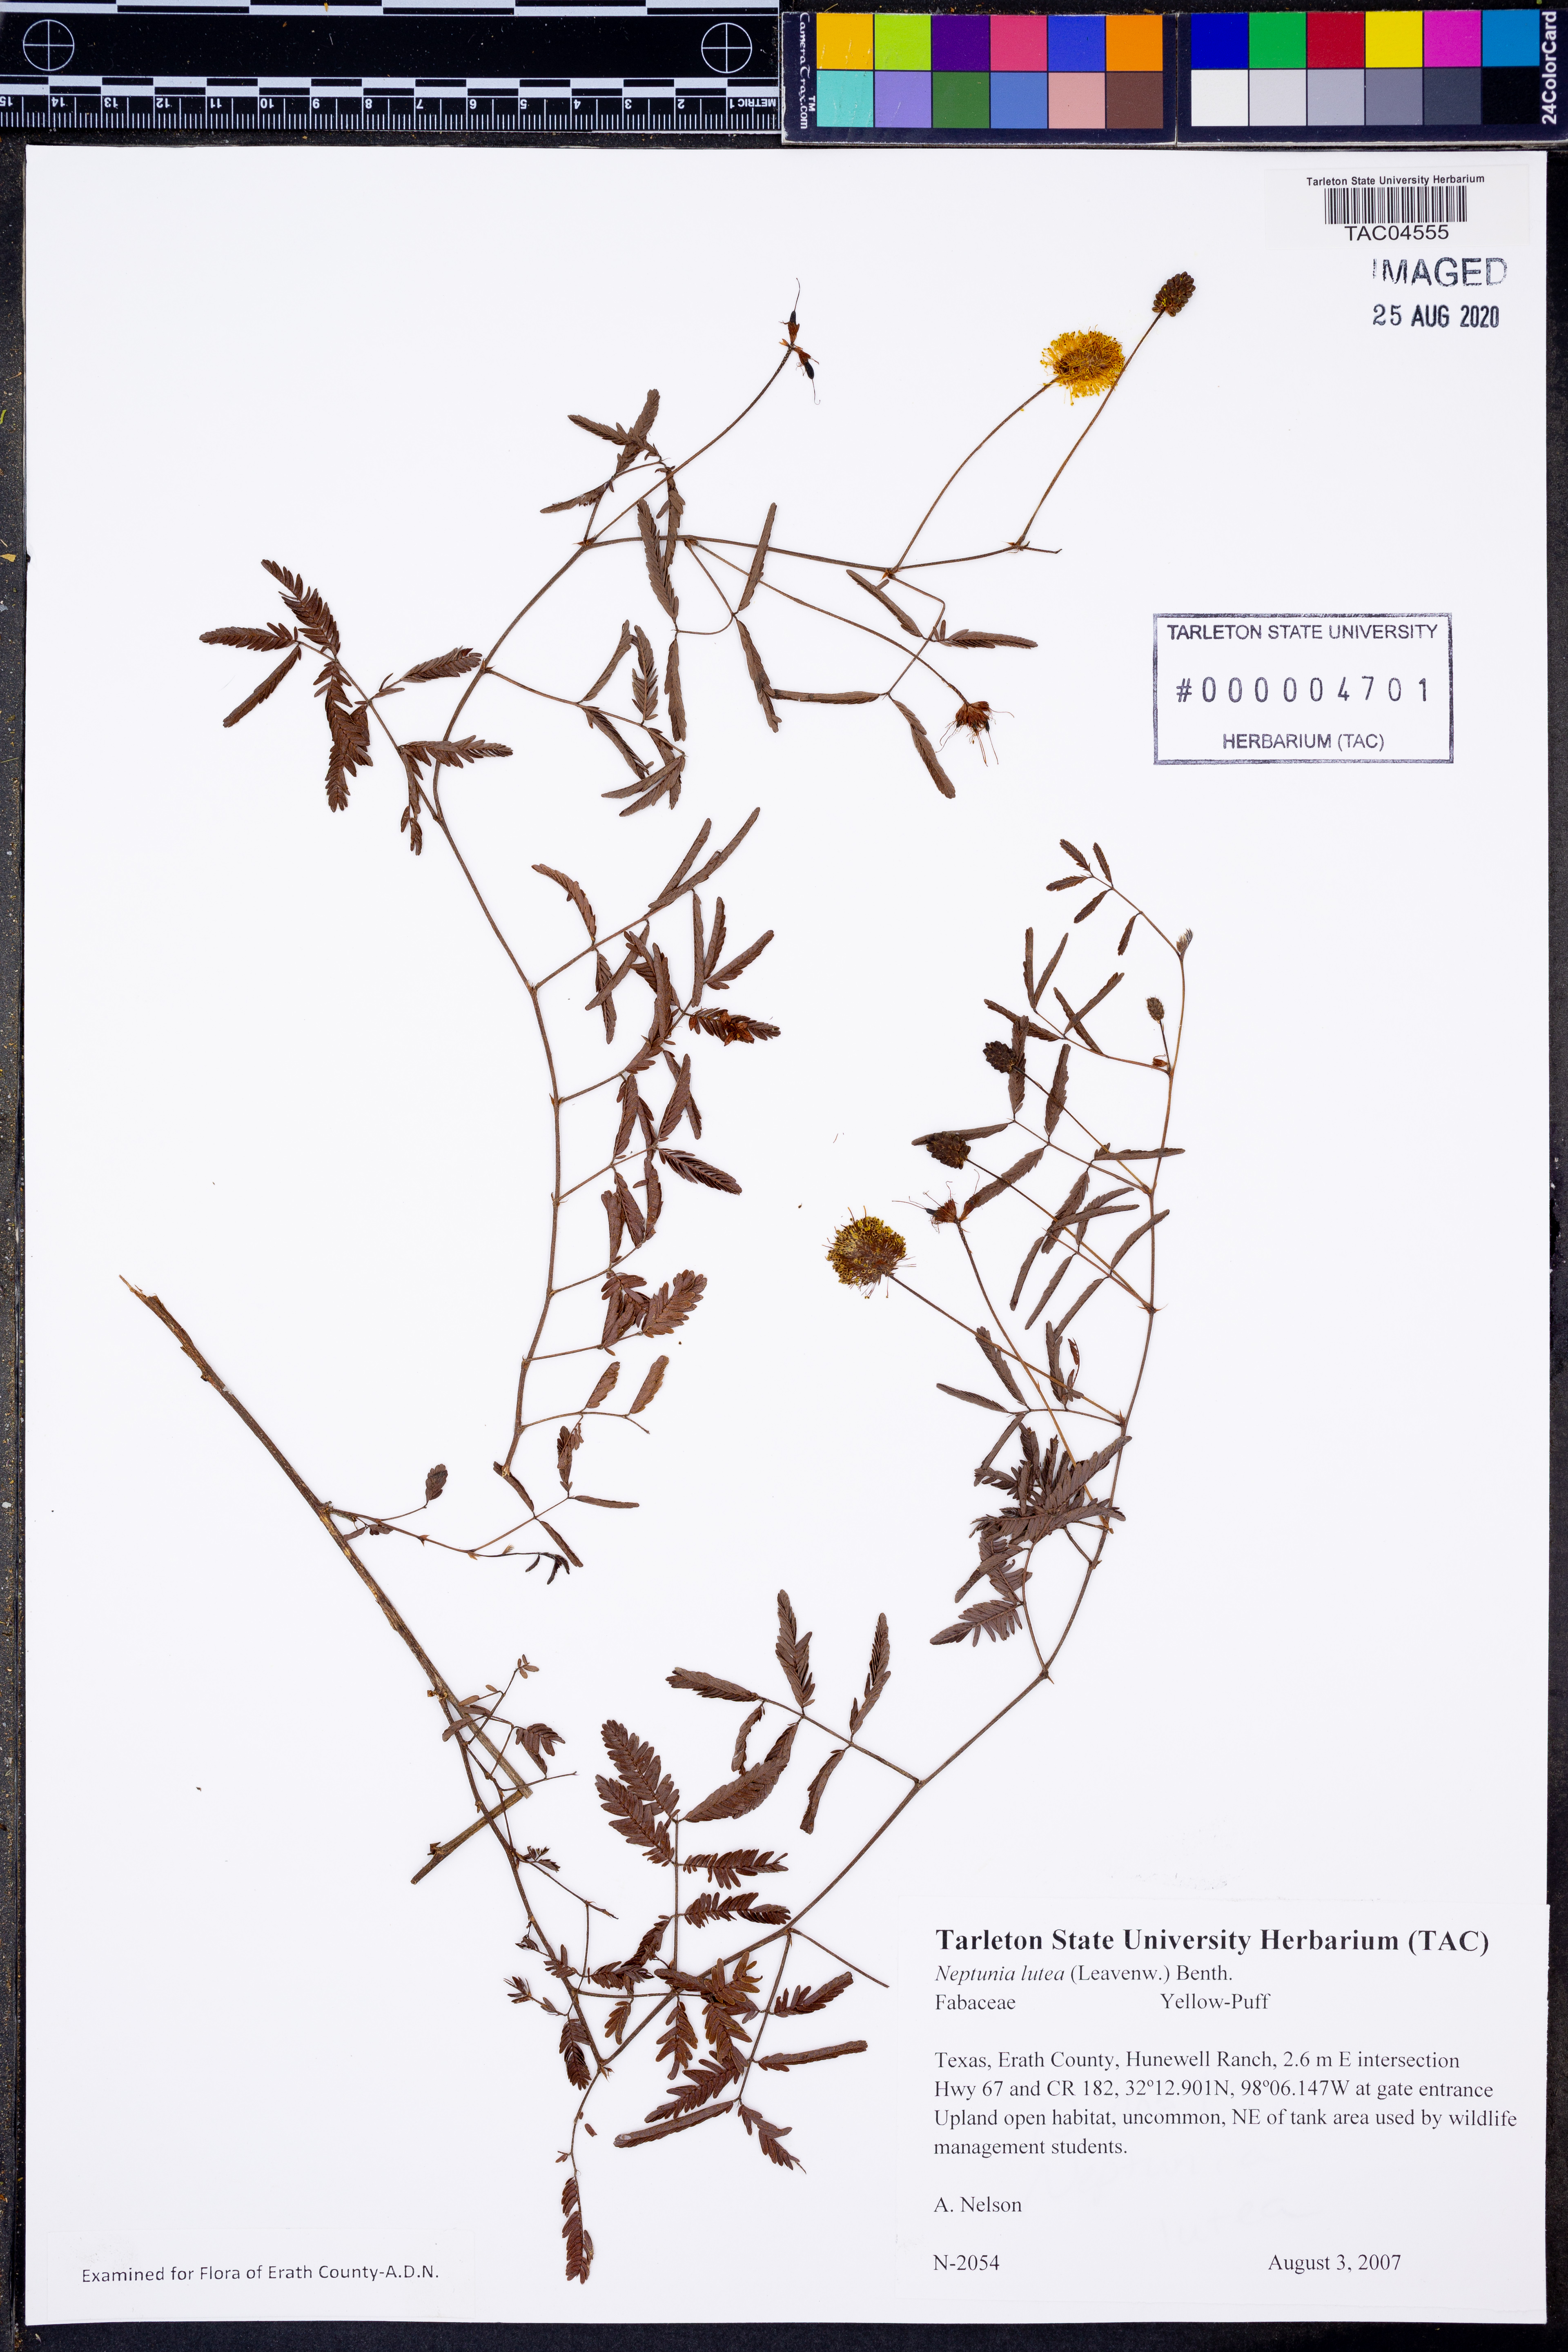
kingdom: Plantae
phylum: Tracheophyta
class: Magnoliopsida
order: Fabales
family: Fabaceae
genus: Neptunia
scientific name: Neptunia lutea
